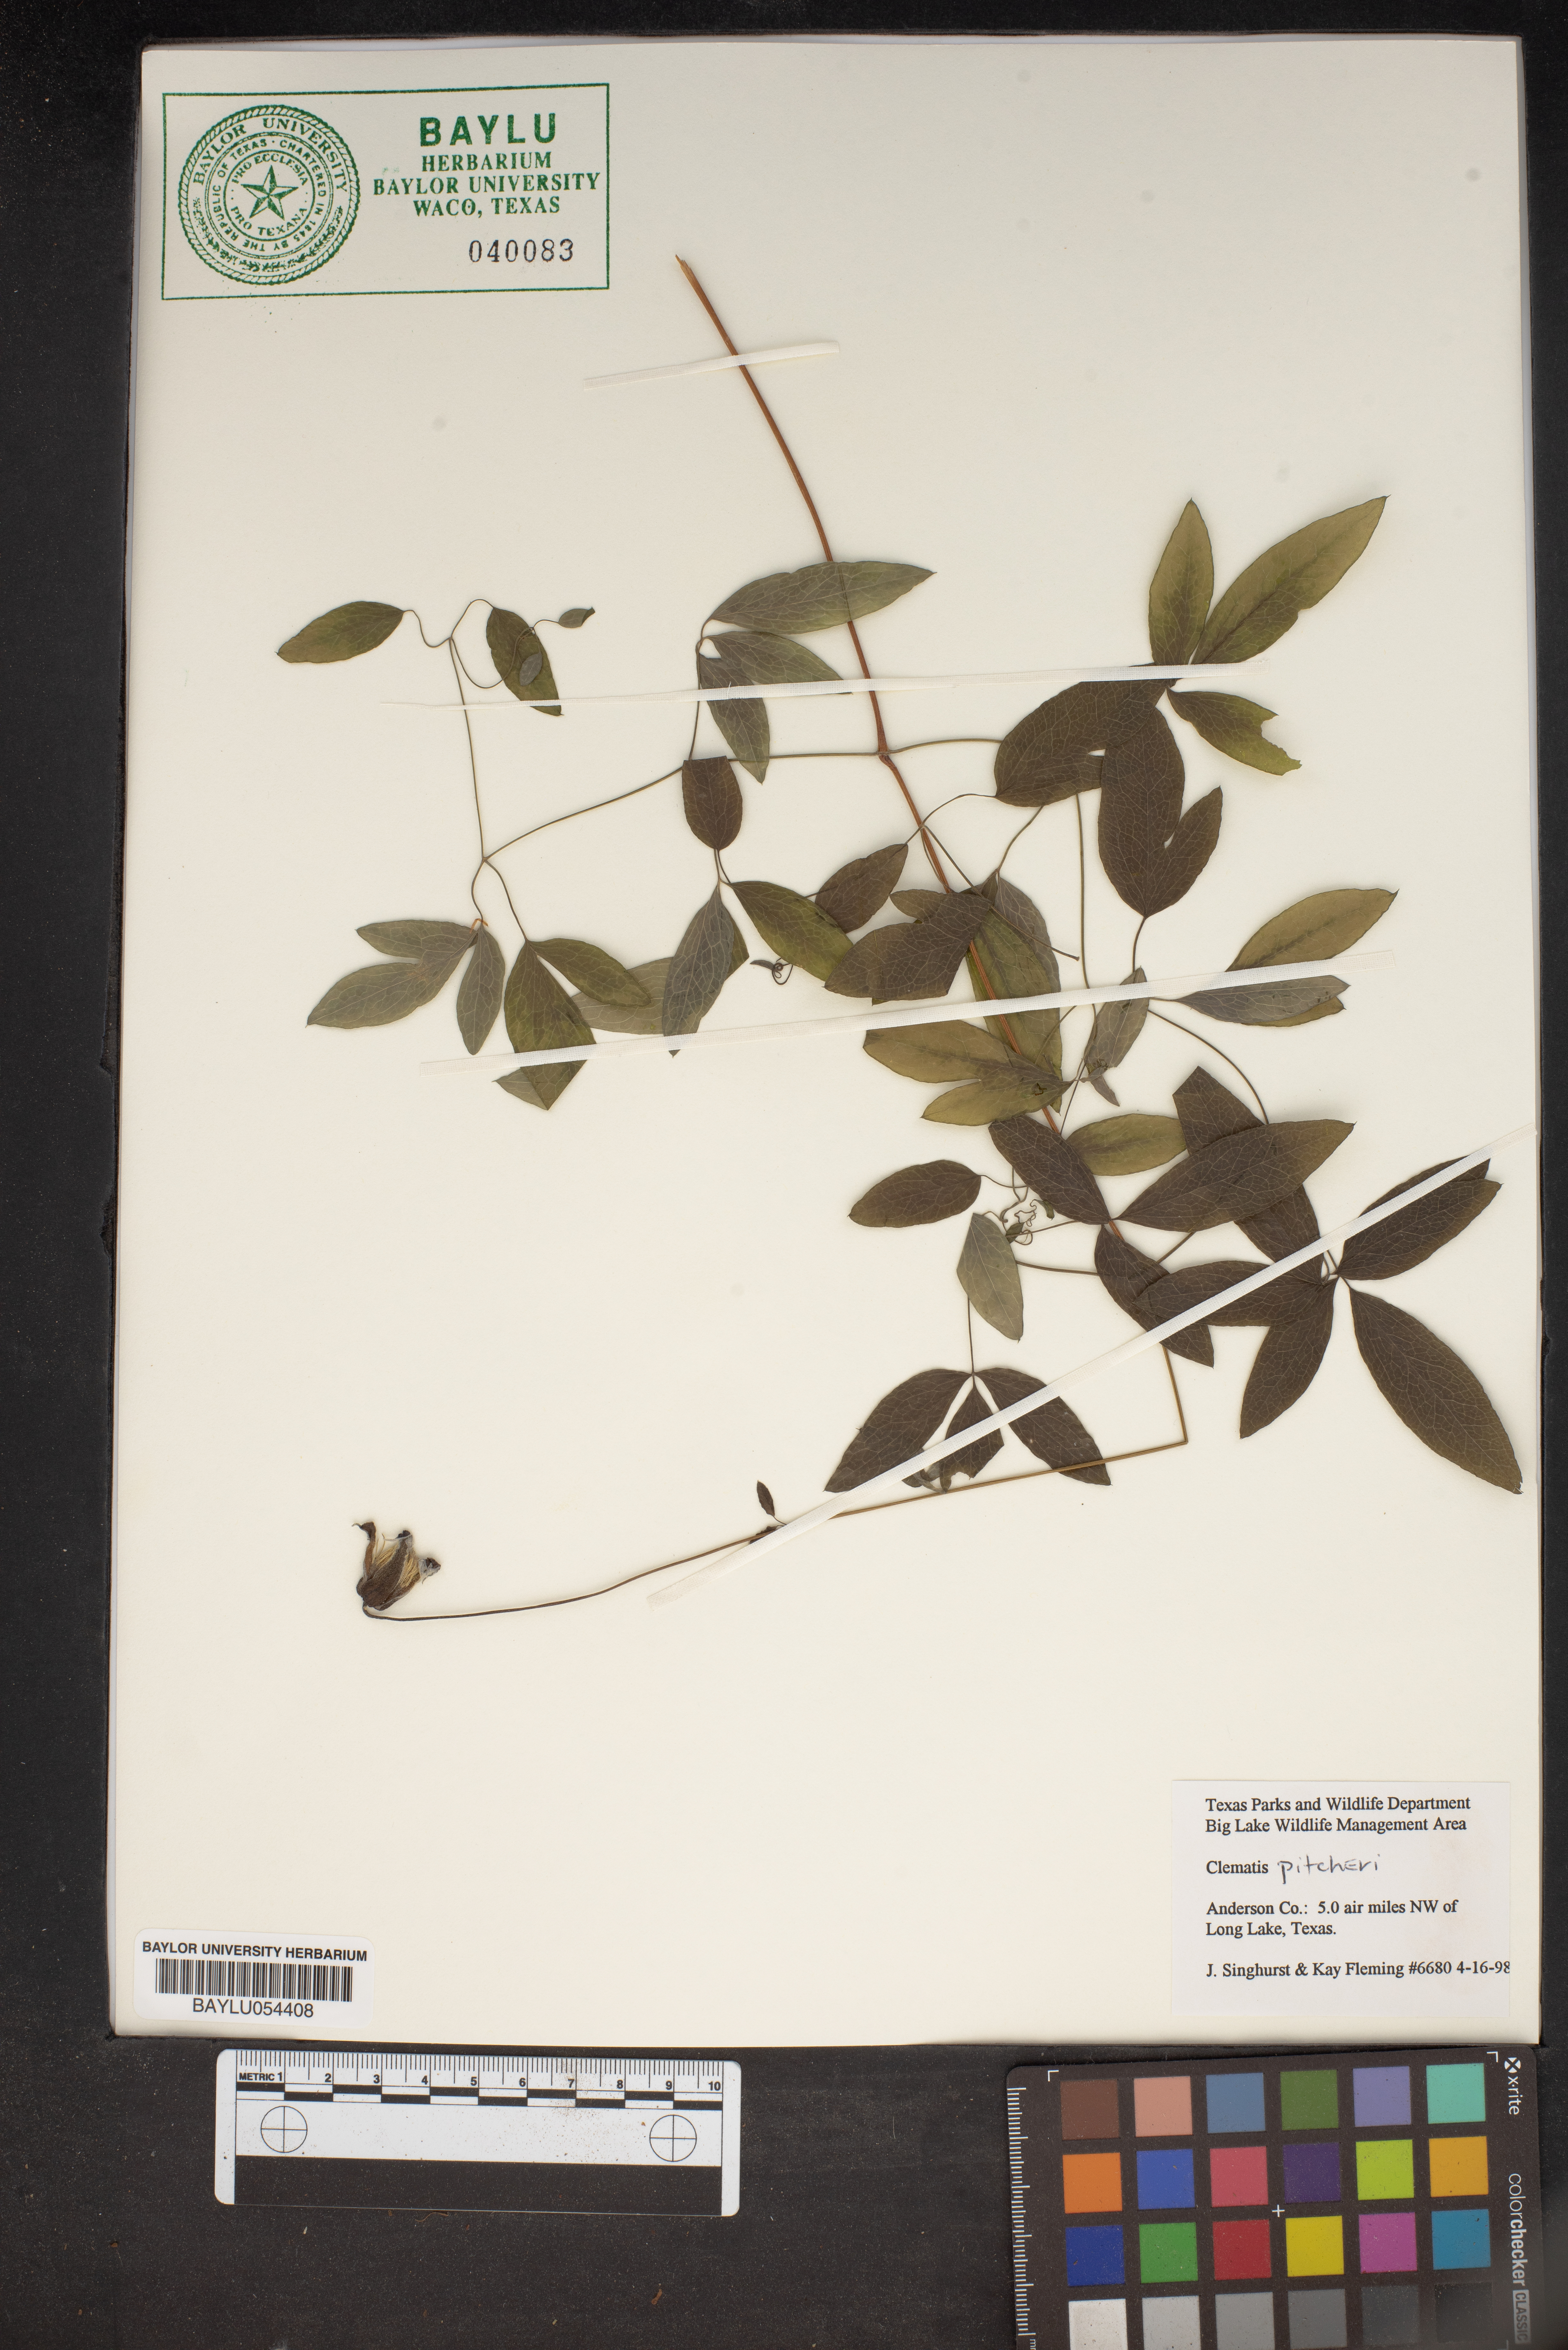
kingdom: Plantae
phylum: Tracheophyta
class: Magnoliopsida
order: Ranunculales
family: Ranunculaceae
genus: Clematis
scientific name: Clematis pitcheri
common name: Bellflower clematis
